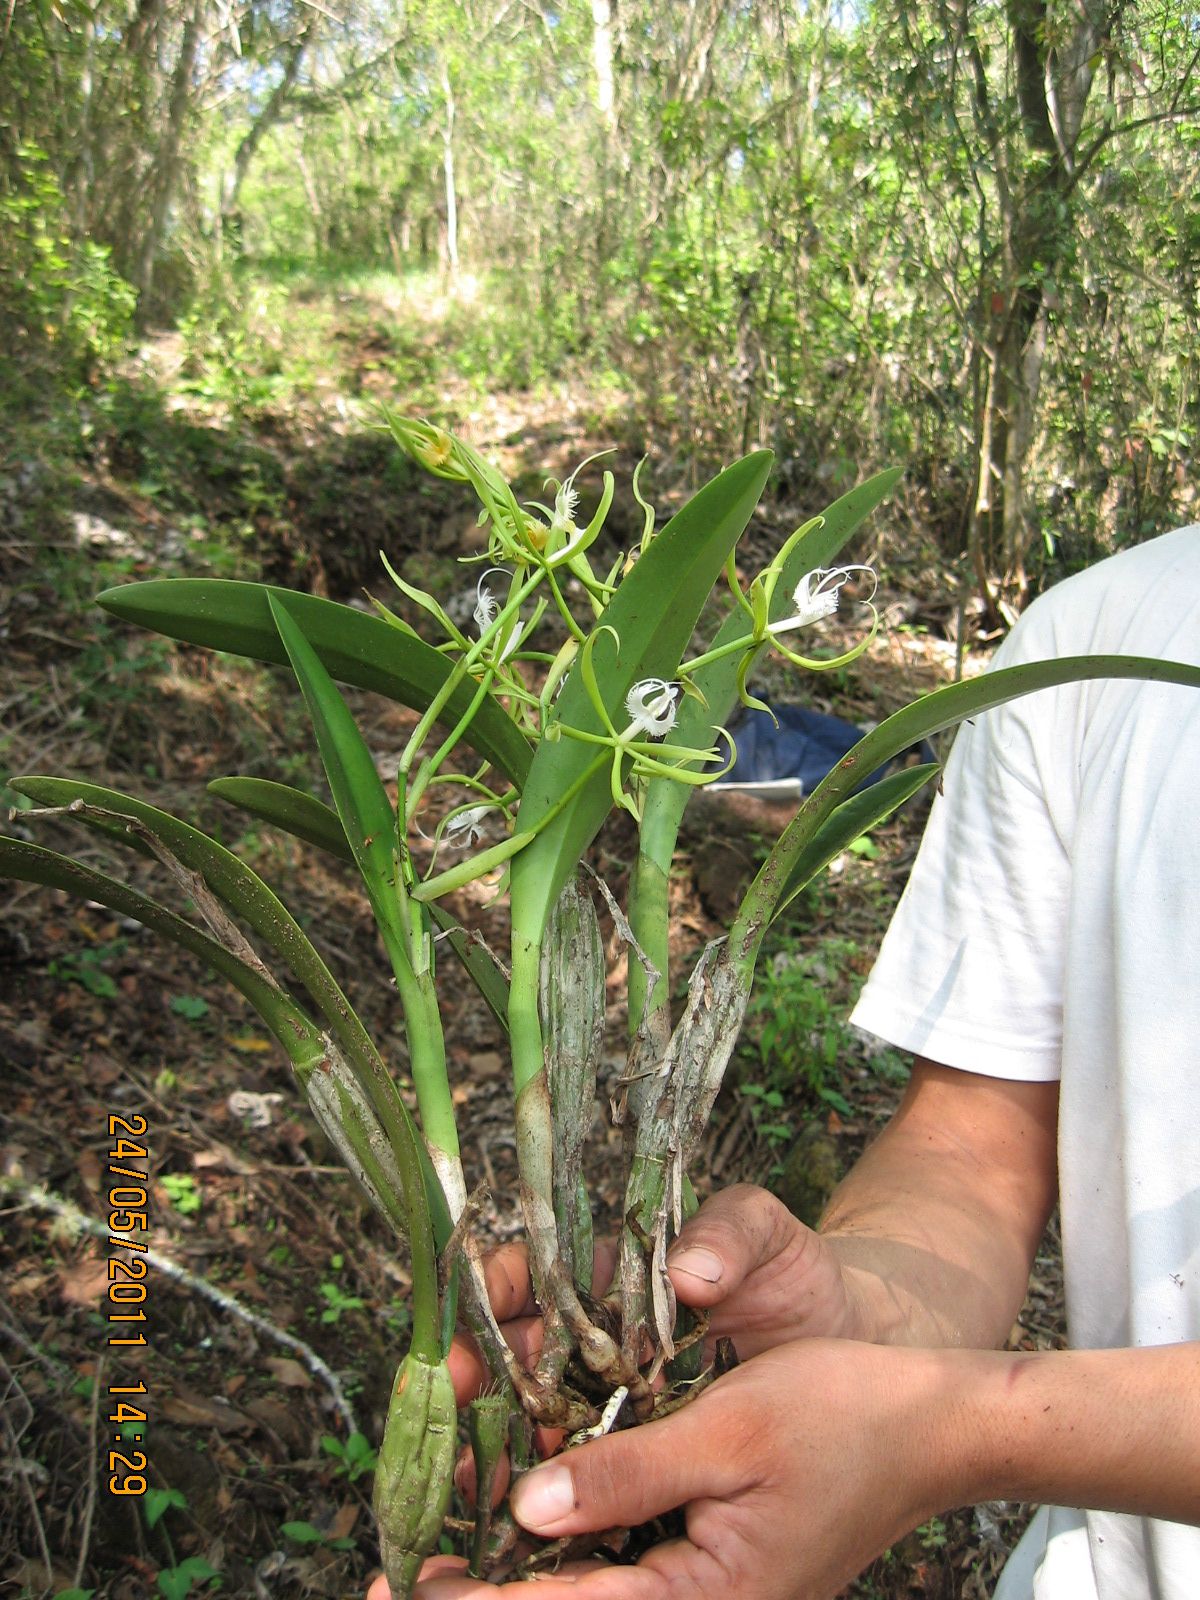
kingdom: Plantae
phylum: Tracheophyta
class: Liliopsida
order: Asparagales
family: Orchidaceae
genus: Epidendrum
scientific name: Epidendrum ciliare
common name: Eyelash orchid
